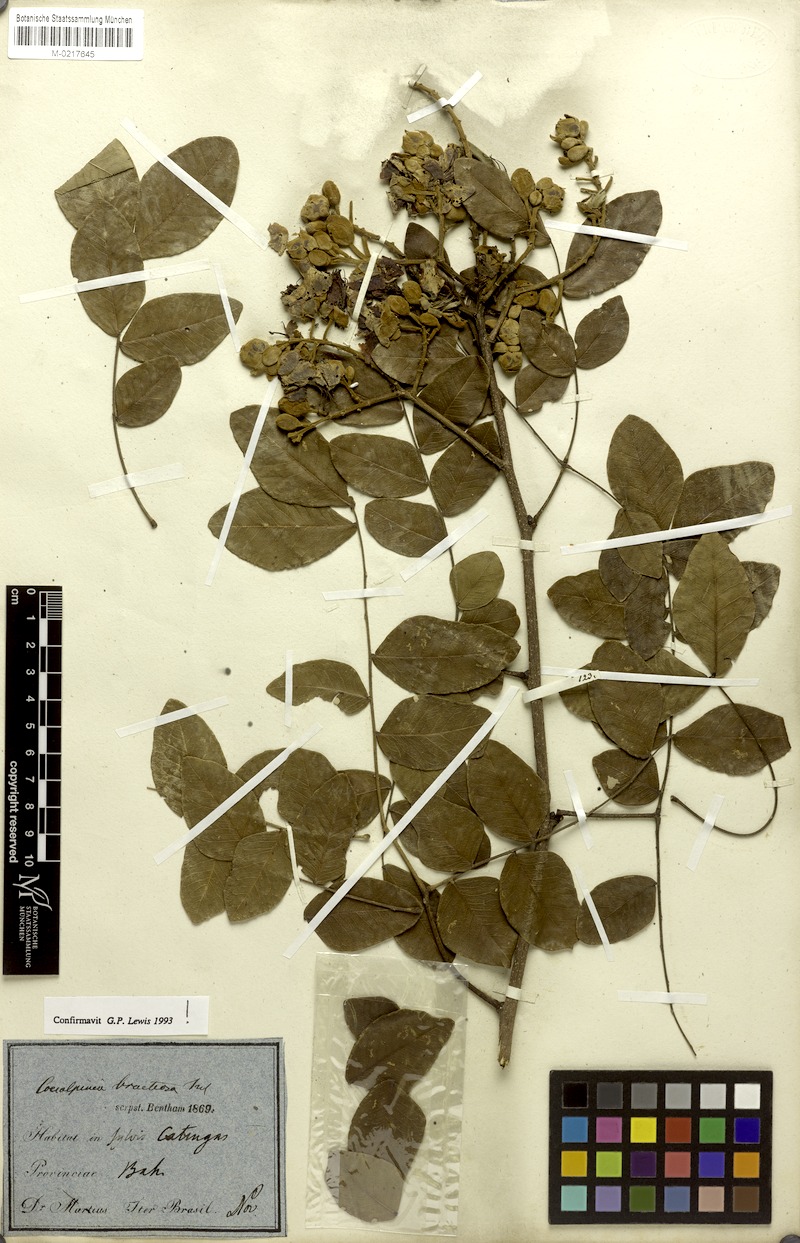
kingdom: Plantae
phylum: Tracheophyta
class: Magnoliopsida
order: Fabales
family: Fabaceae
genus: Cenostigma
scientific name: Cenostigma bracteosum
